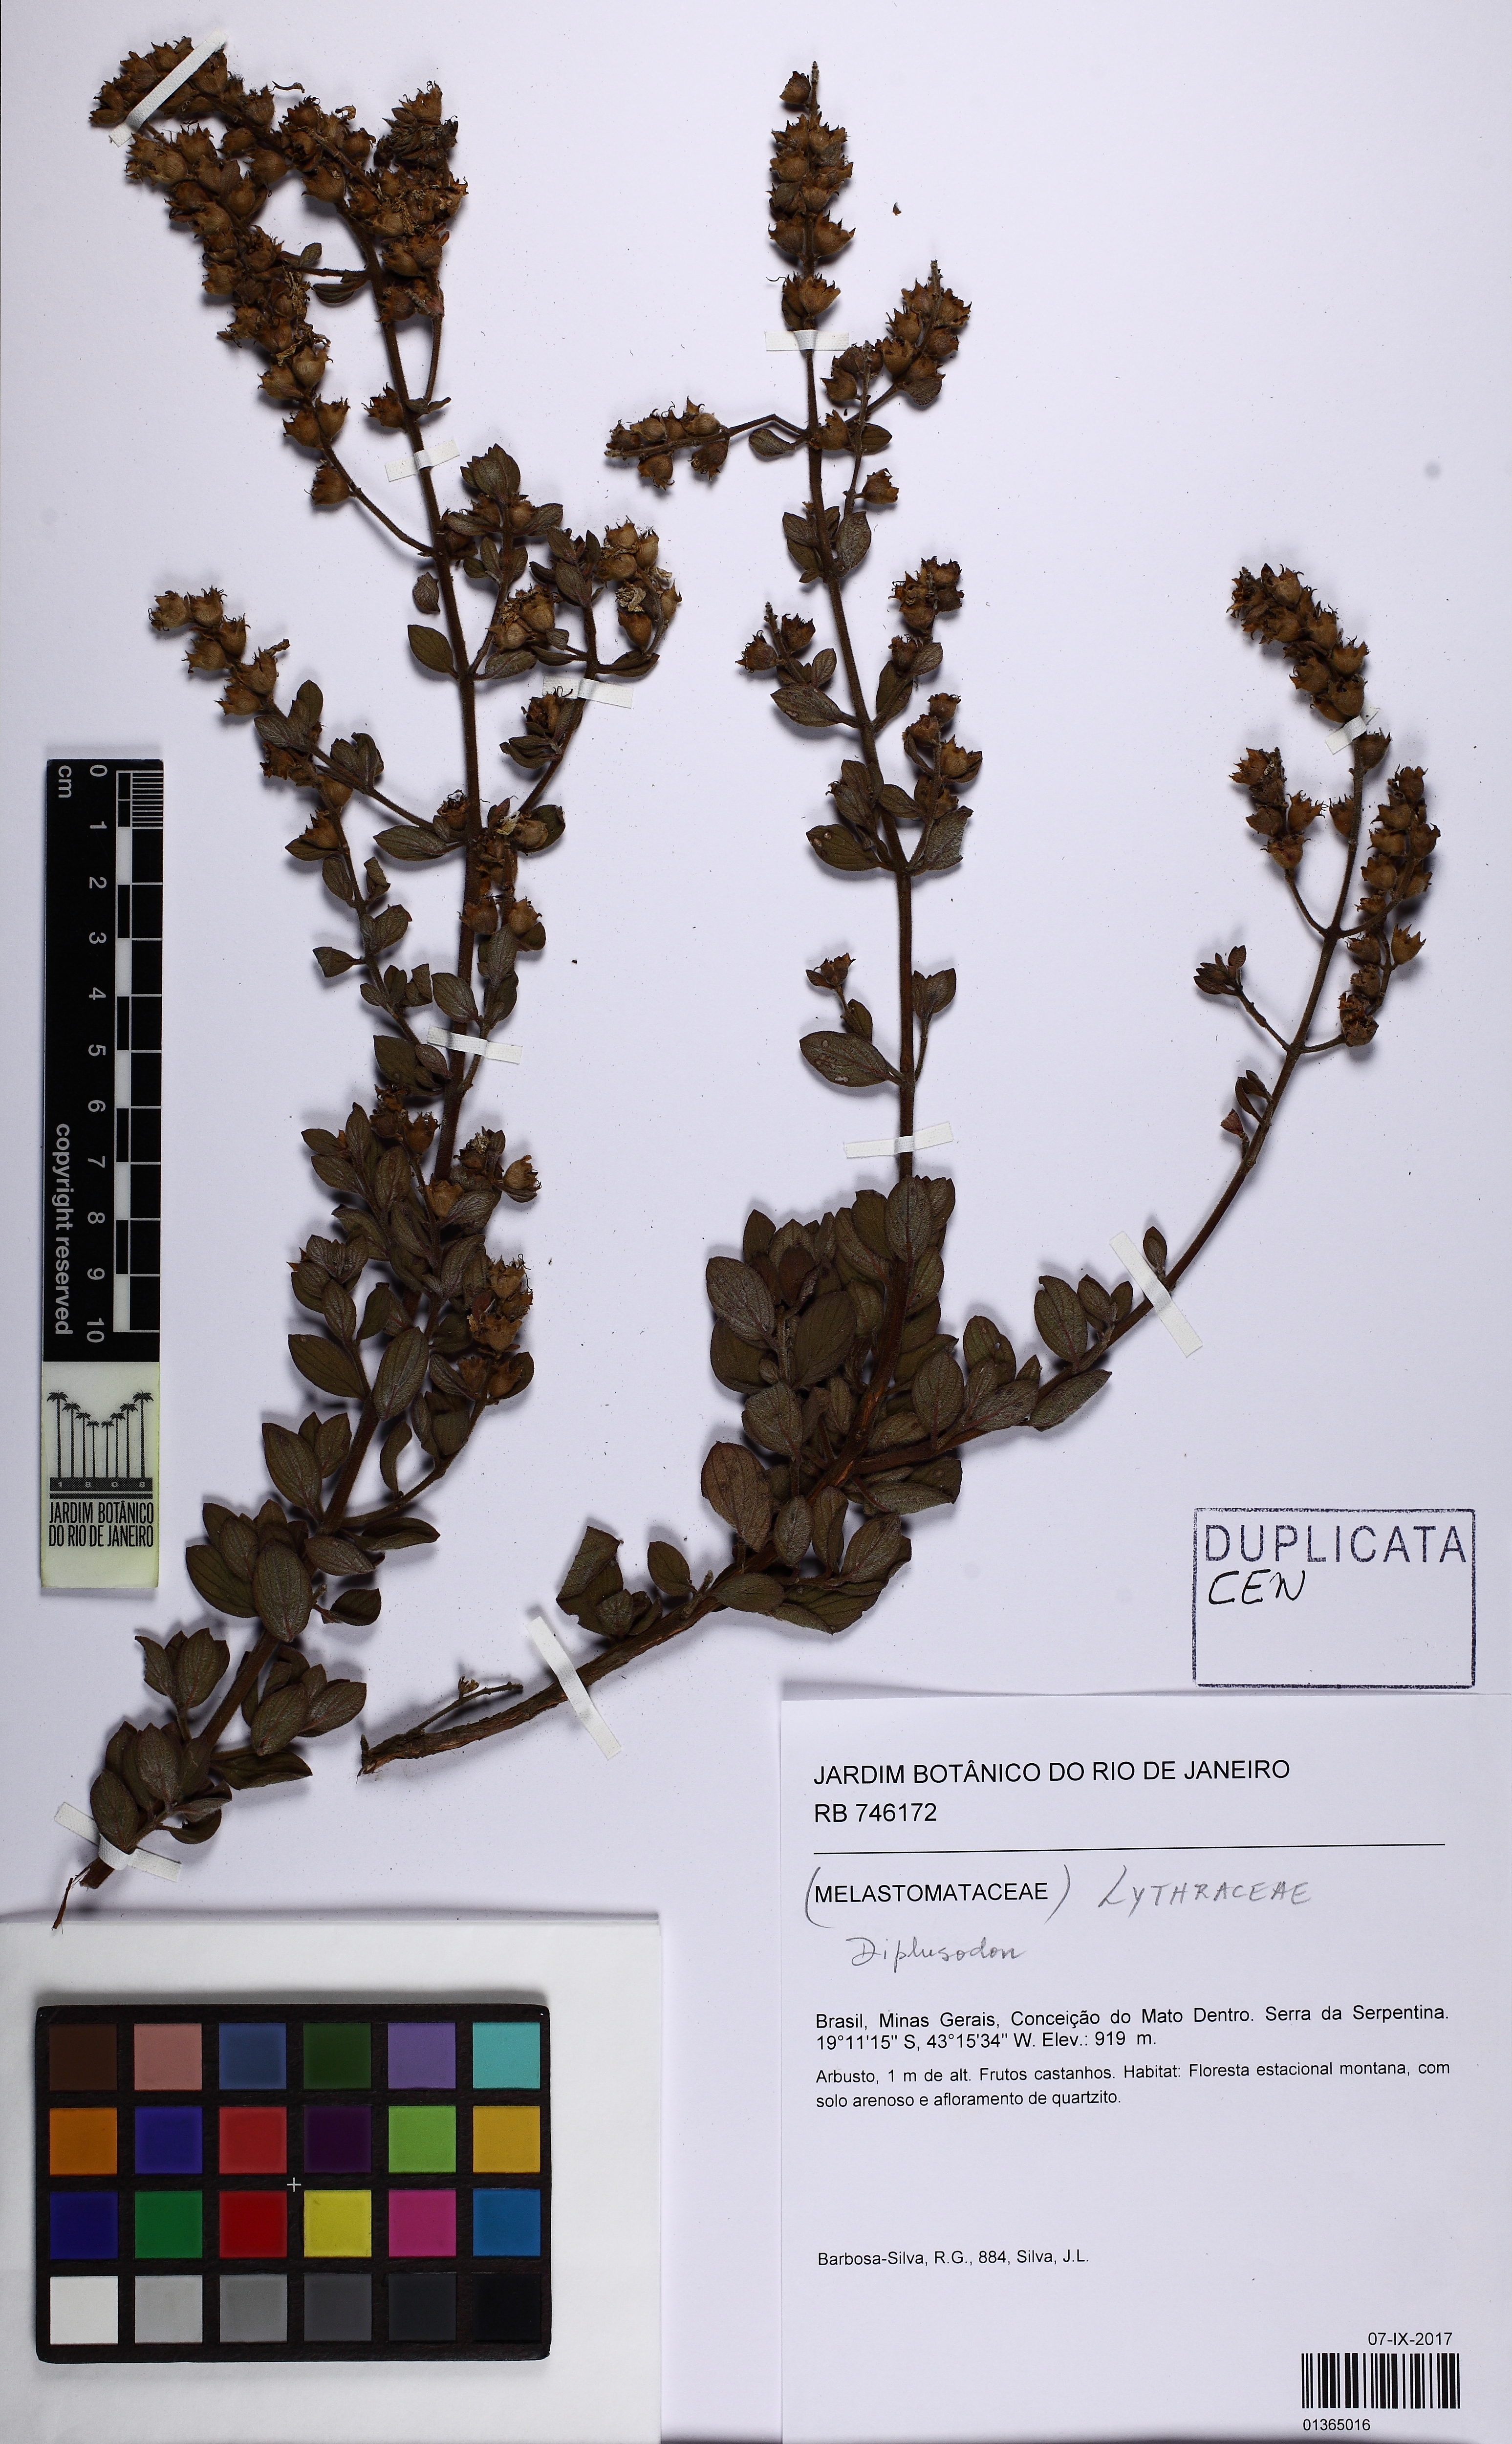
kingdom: Plantae
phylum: Tracheophyta
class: Magnoliopsida
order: Myrtales
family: Lythraceae
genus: Diplusodon
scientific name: Diplusodon
